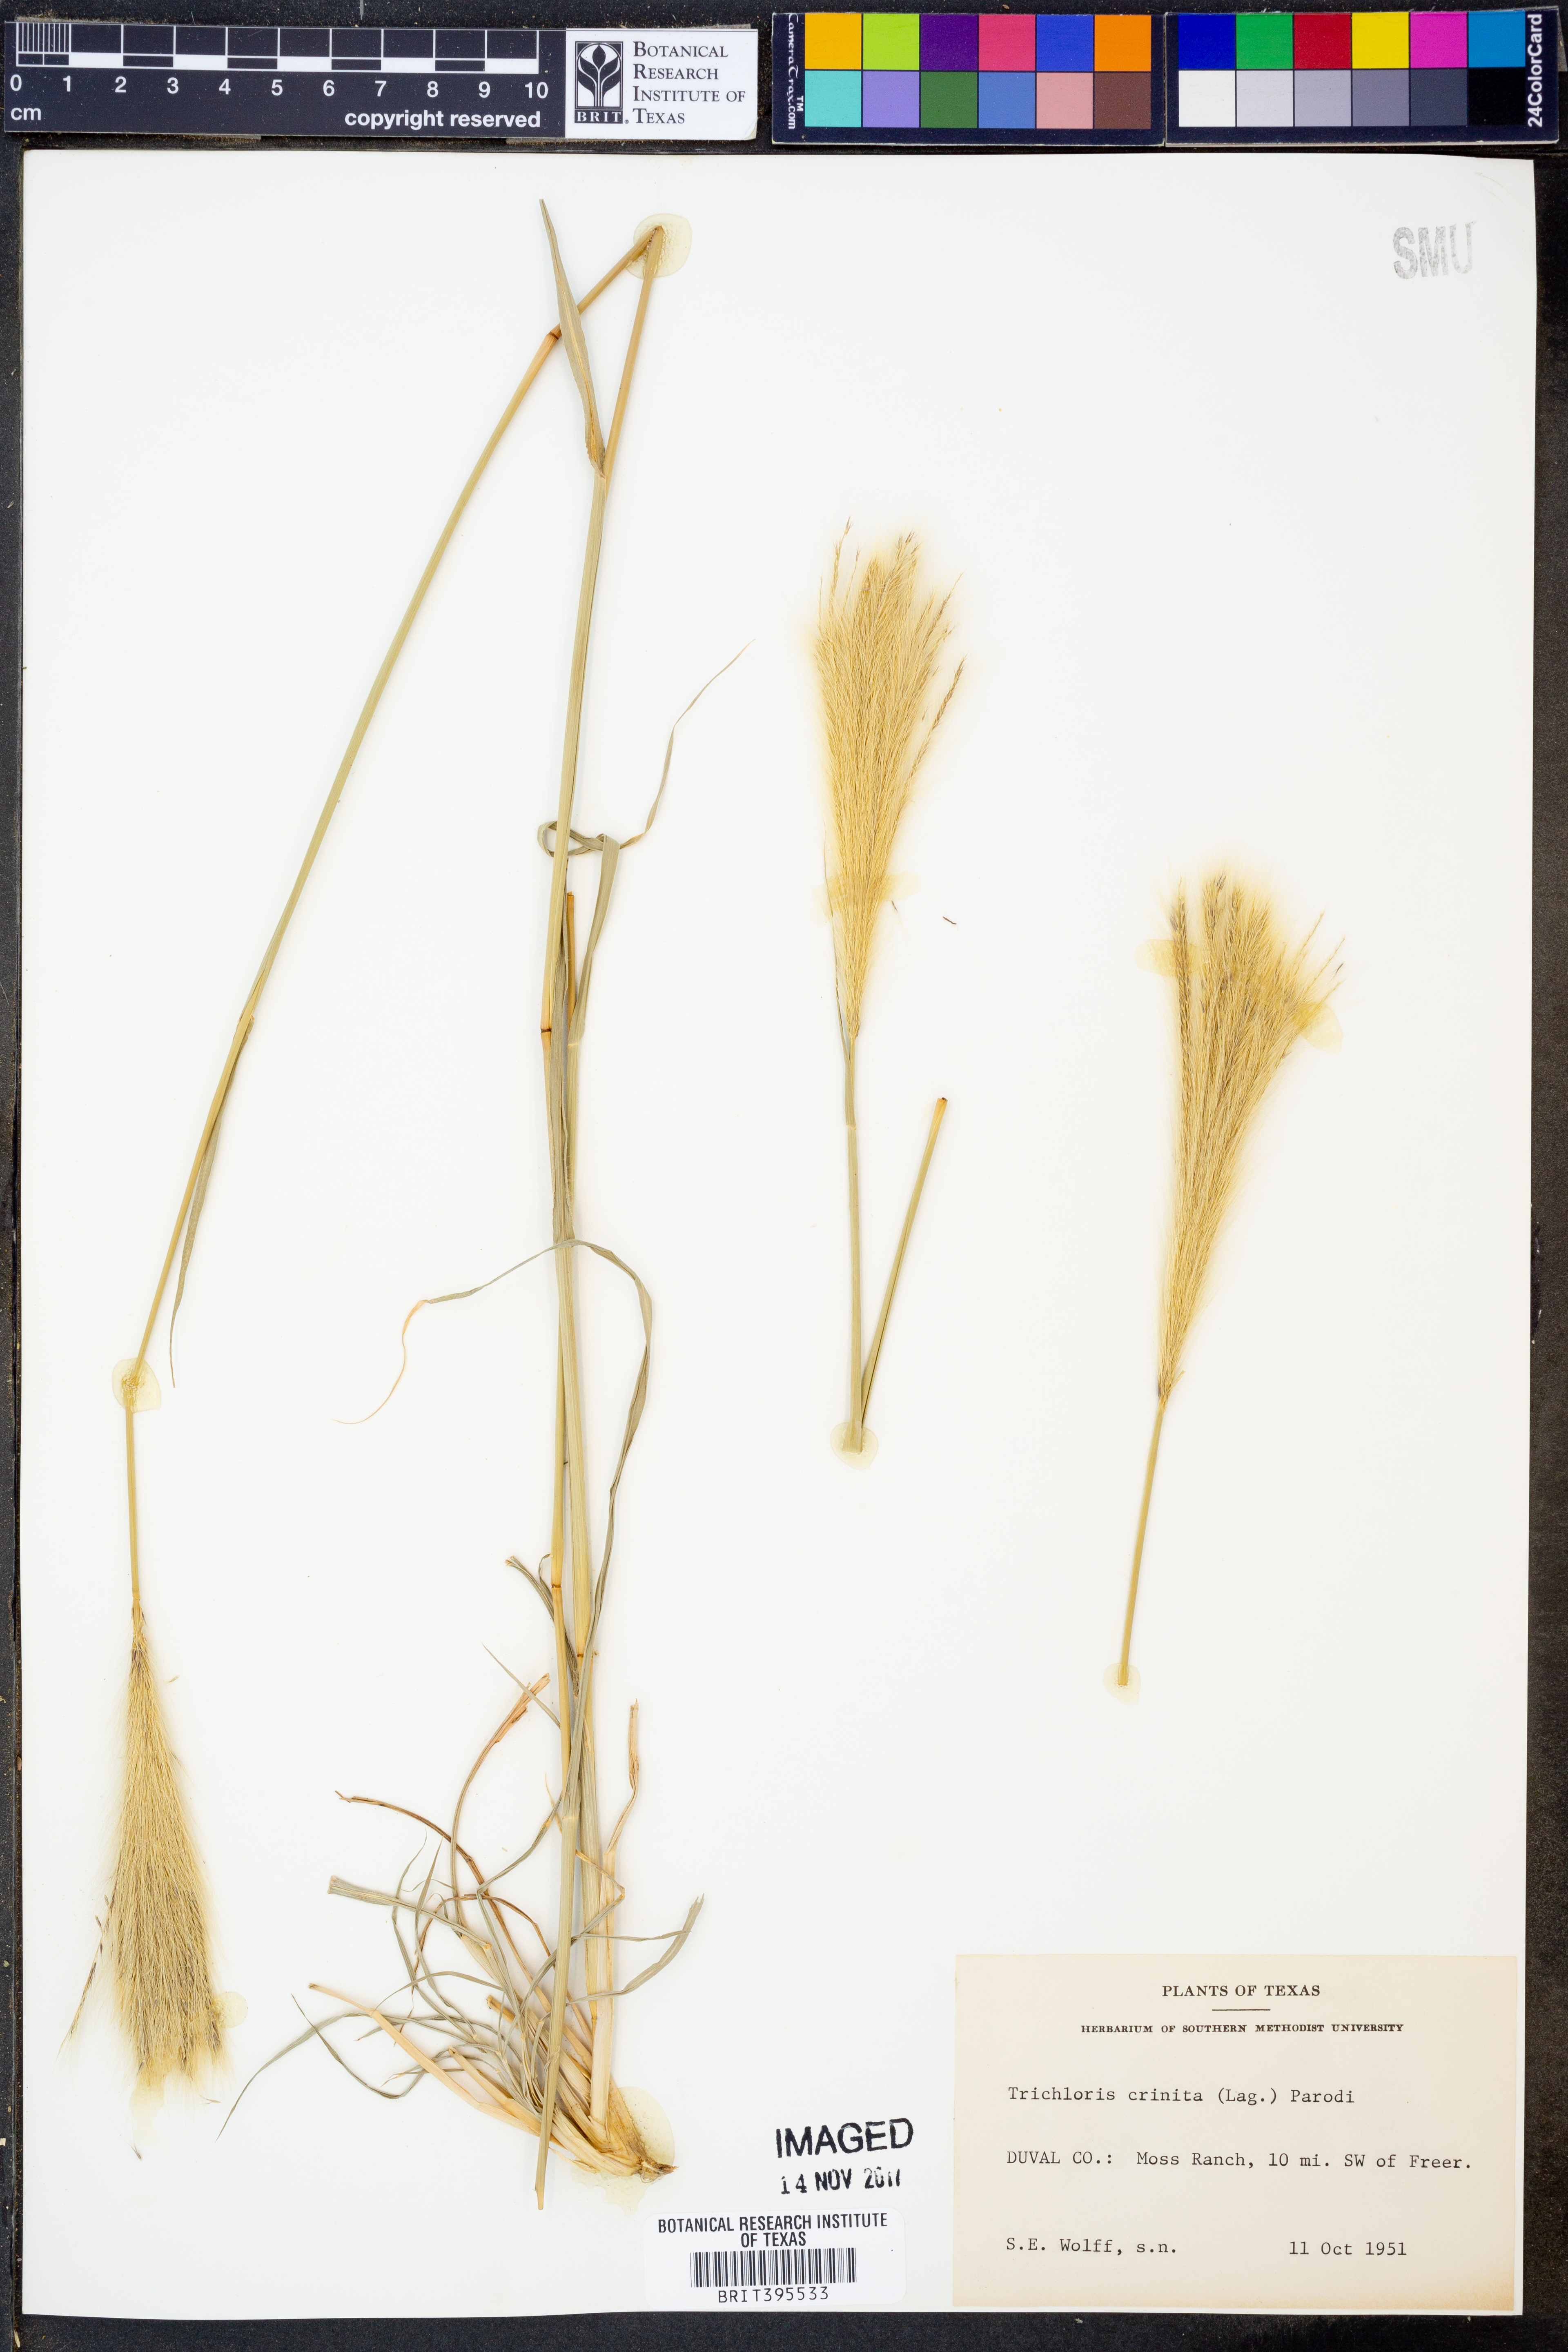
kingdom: Plantae
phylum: Tracheophyta
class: Liliopsida
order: Poales
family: Poaceae
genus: Leptochloa
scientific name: Leptochloa crinita
